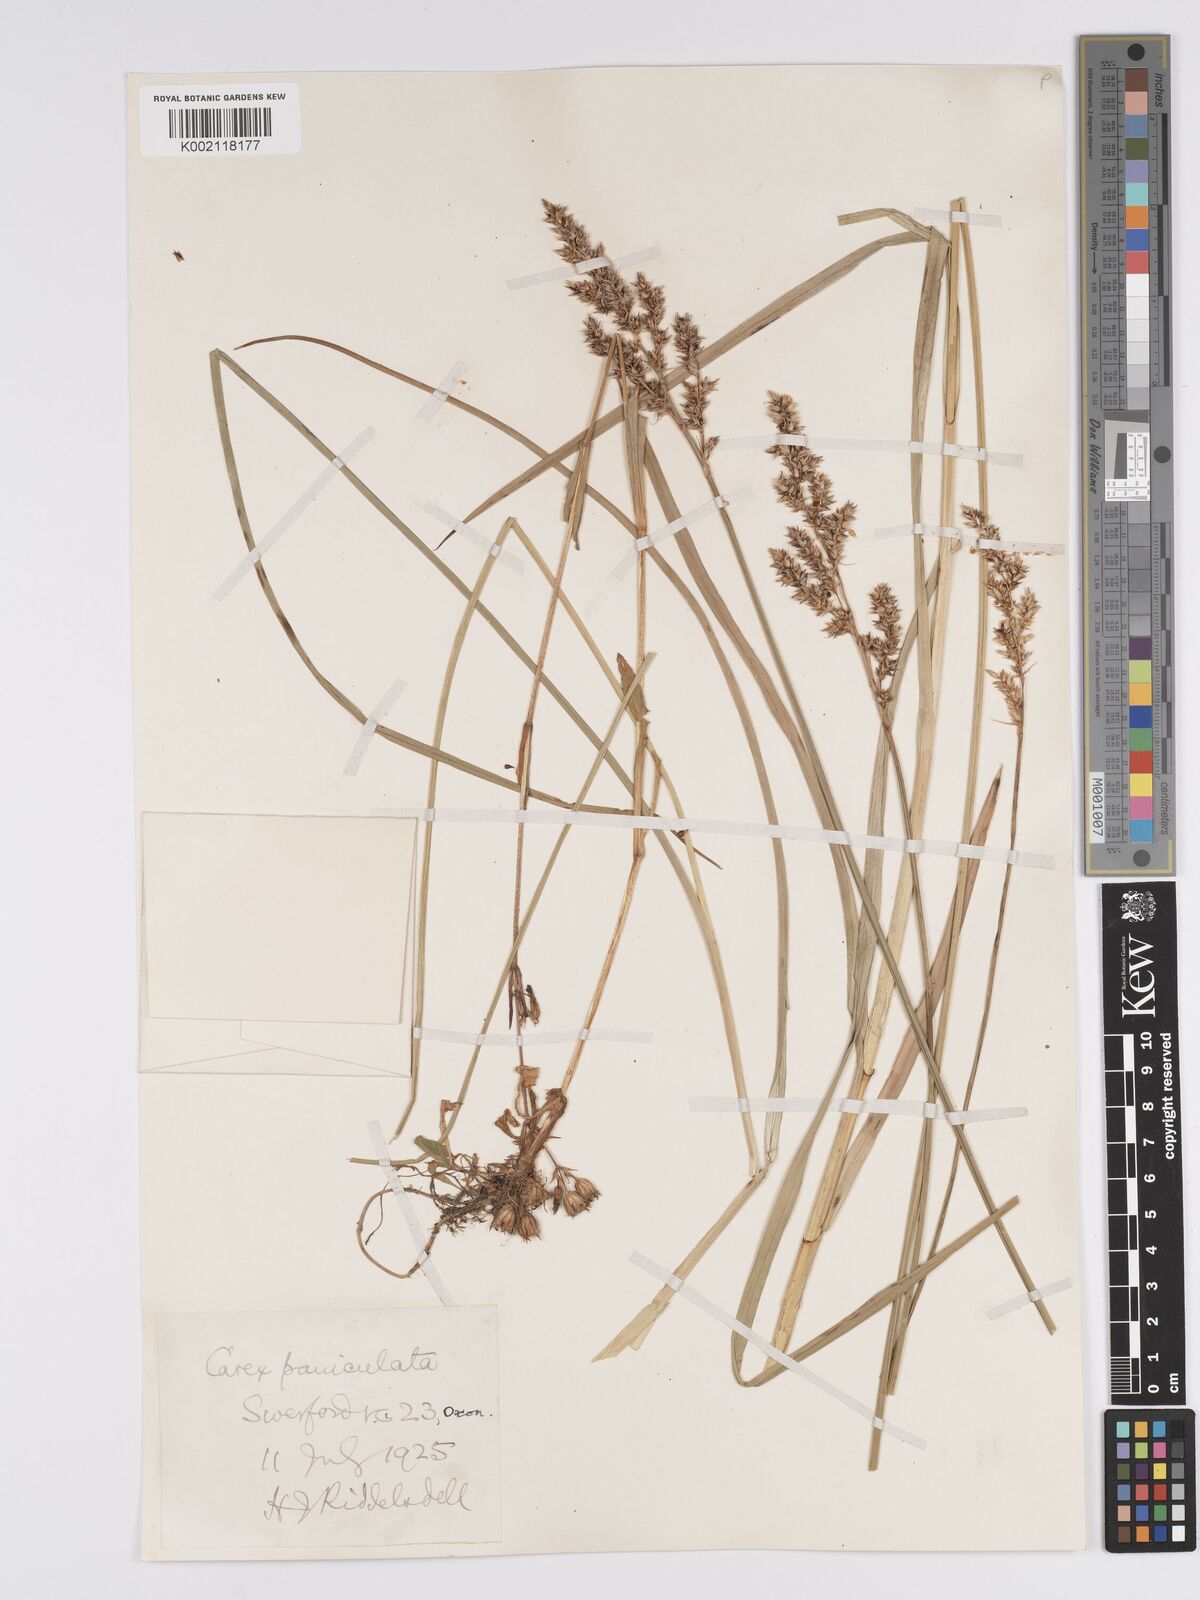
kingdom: Plantae
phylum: Tracheophyta
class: Liliopsida
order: Poales
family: Cyperaceae
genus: Carex
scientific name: Carex paniculata
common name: Greater tussock-sedge
